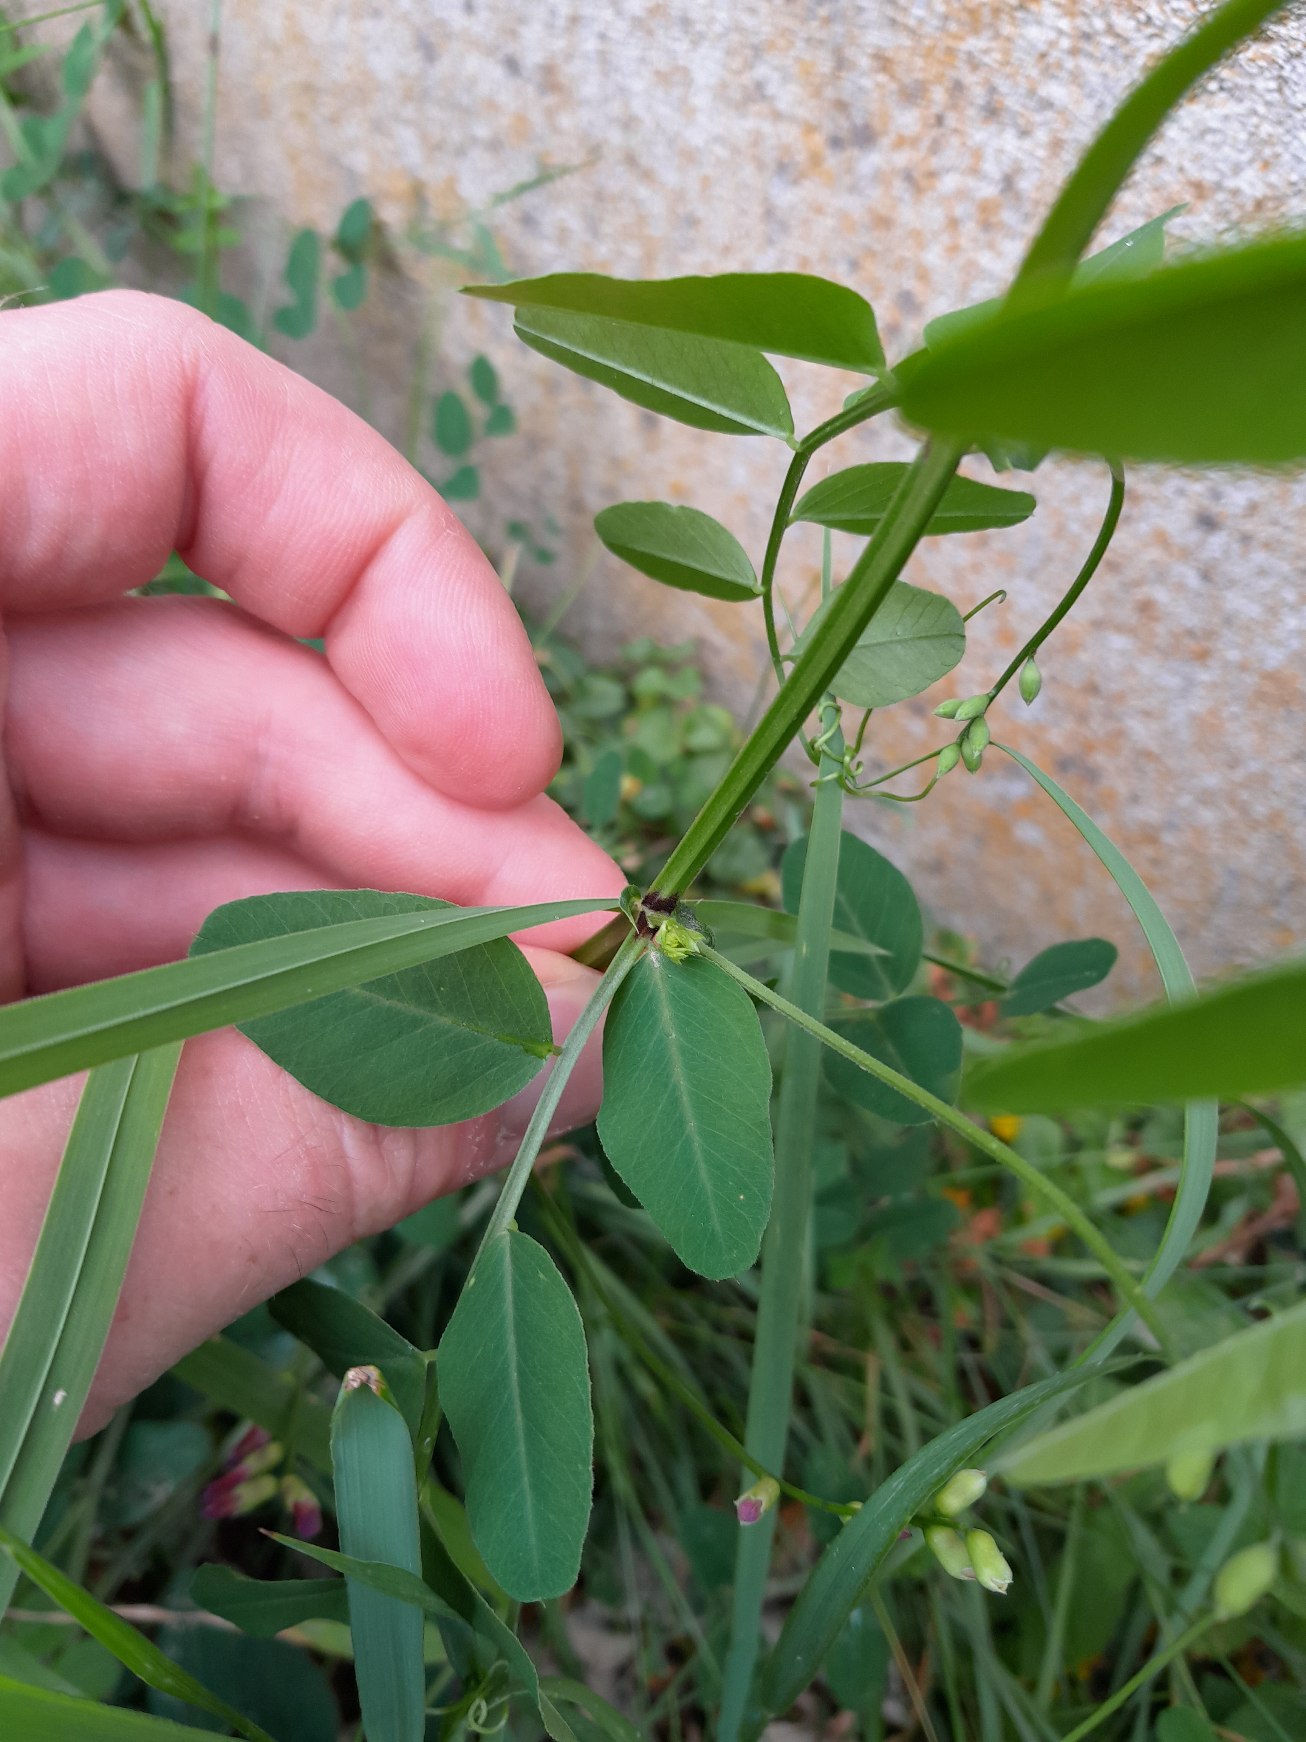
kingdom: Plantae
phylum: Tracheophyta
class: Magnoliopsida
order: Fabales
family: Fabaceae
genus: Vicia
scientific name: Vicia dumetorum
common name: Krat-vikke
